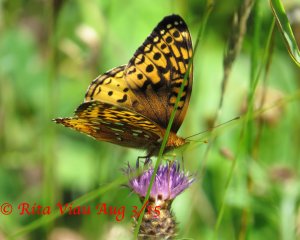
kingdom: Animalia
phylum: Arthropoda
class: Insecta
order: Lepidoptera
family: Nymphalidae
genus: Speyeria
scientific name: Speyeria cybele
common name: Great Spangled Fritillary
